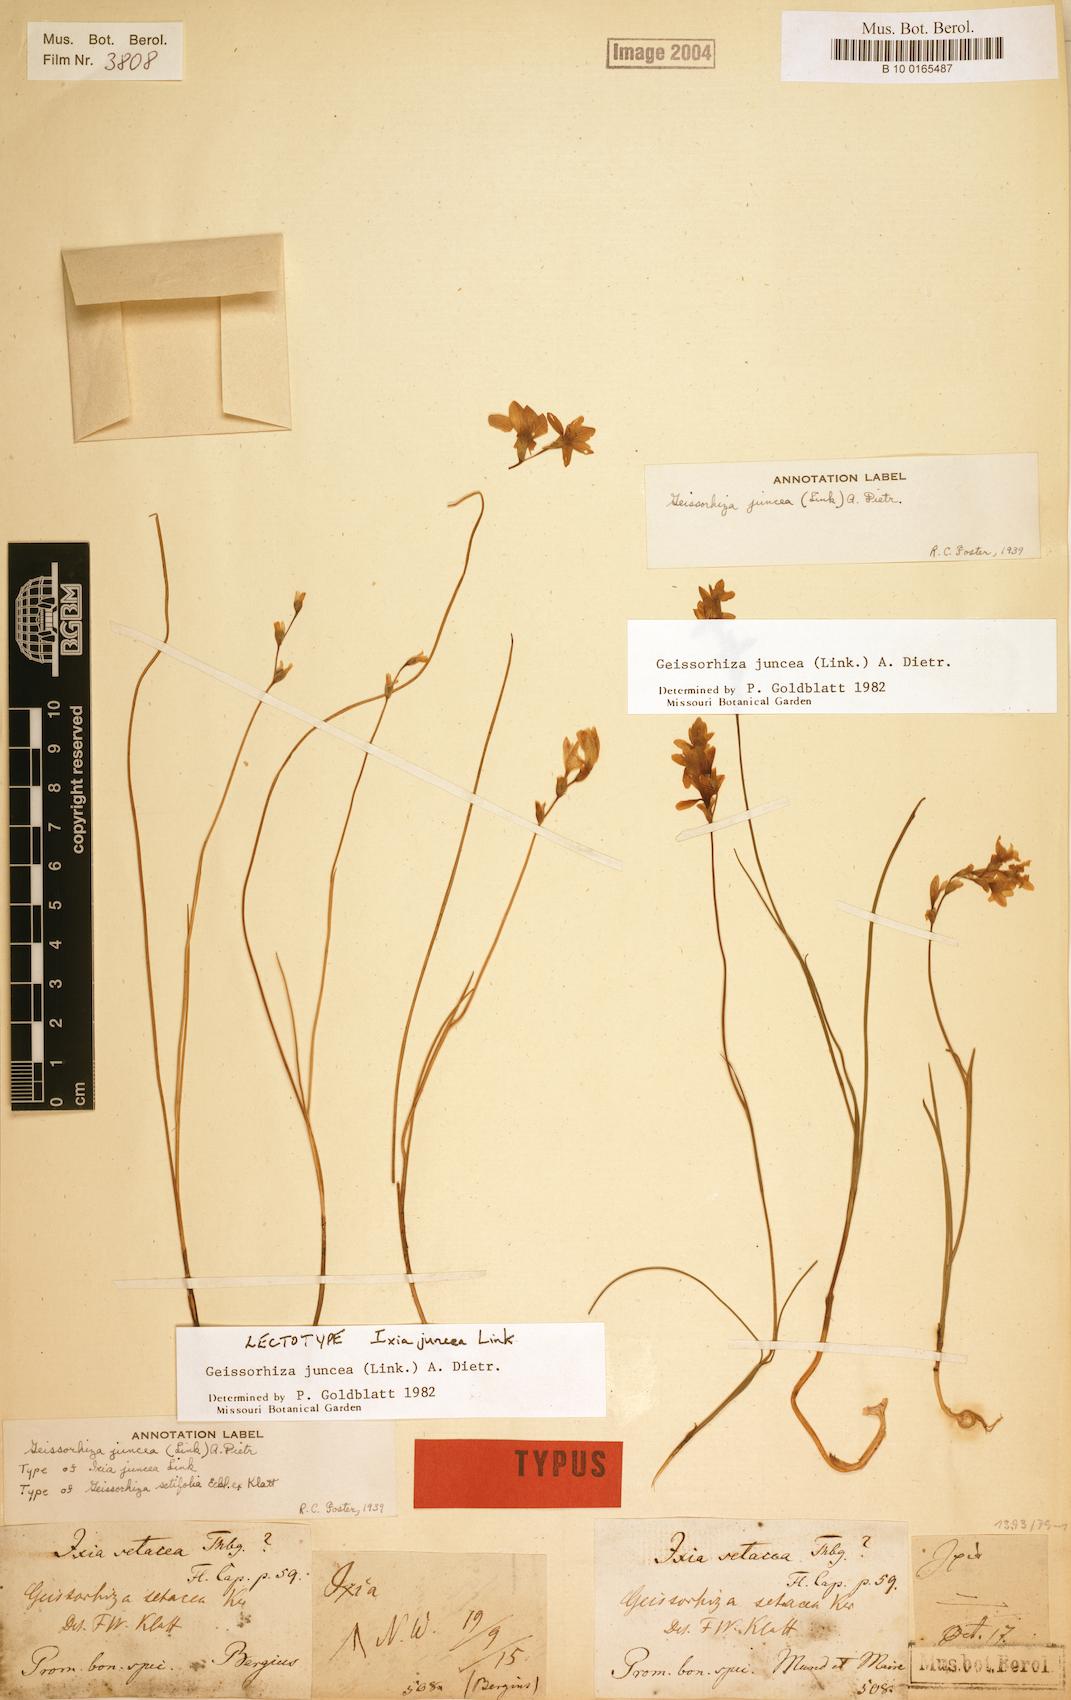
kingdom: Plantae
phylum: Tracheophyta
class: Liliopsida
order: Asparagales
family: Iridaceae
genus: Geissorhiza
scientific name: Geissorhiza juncea
